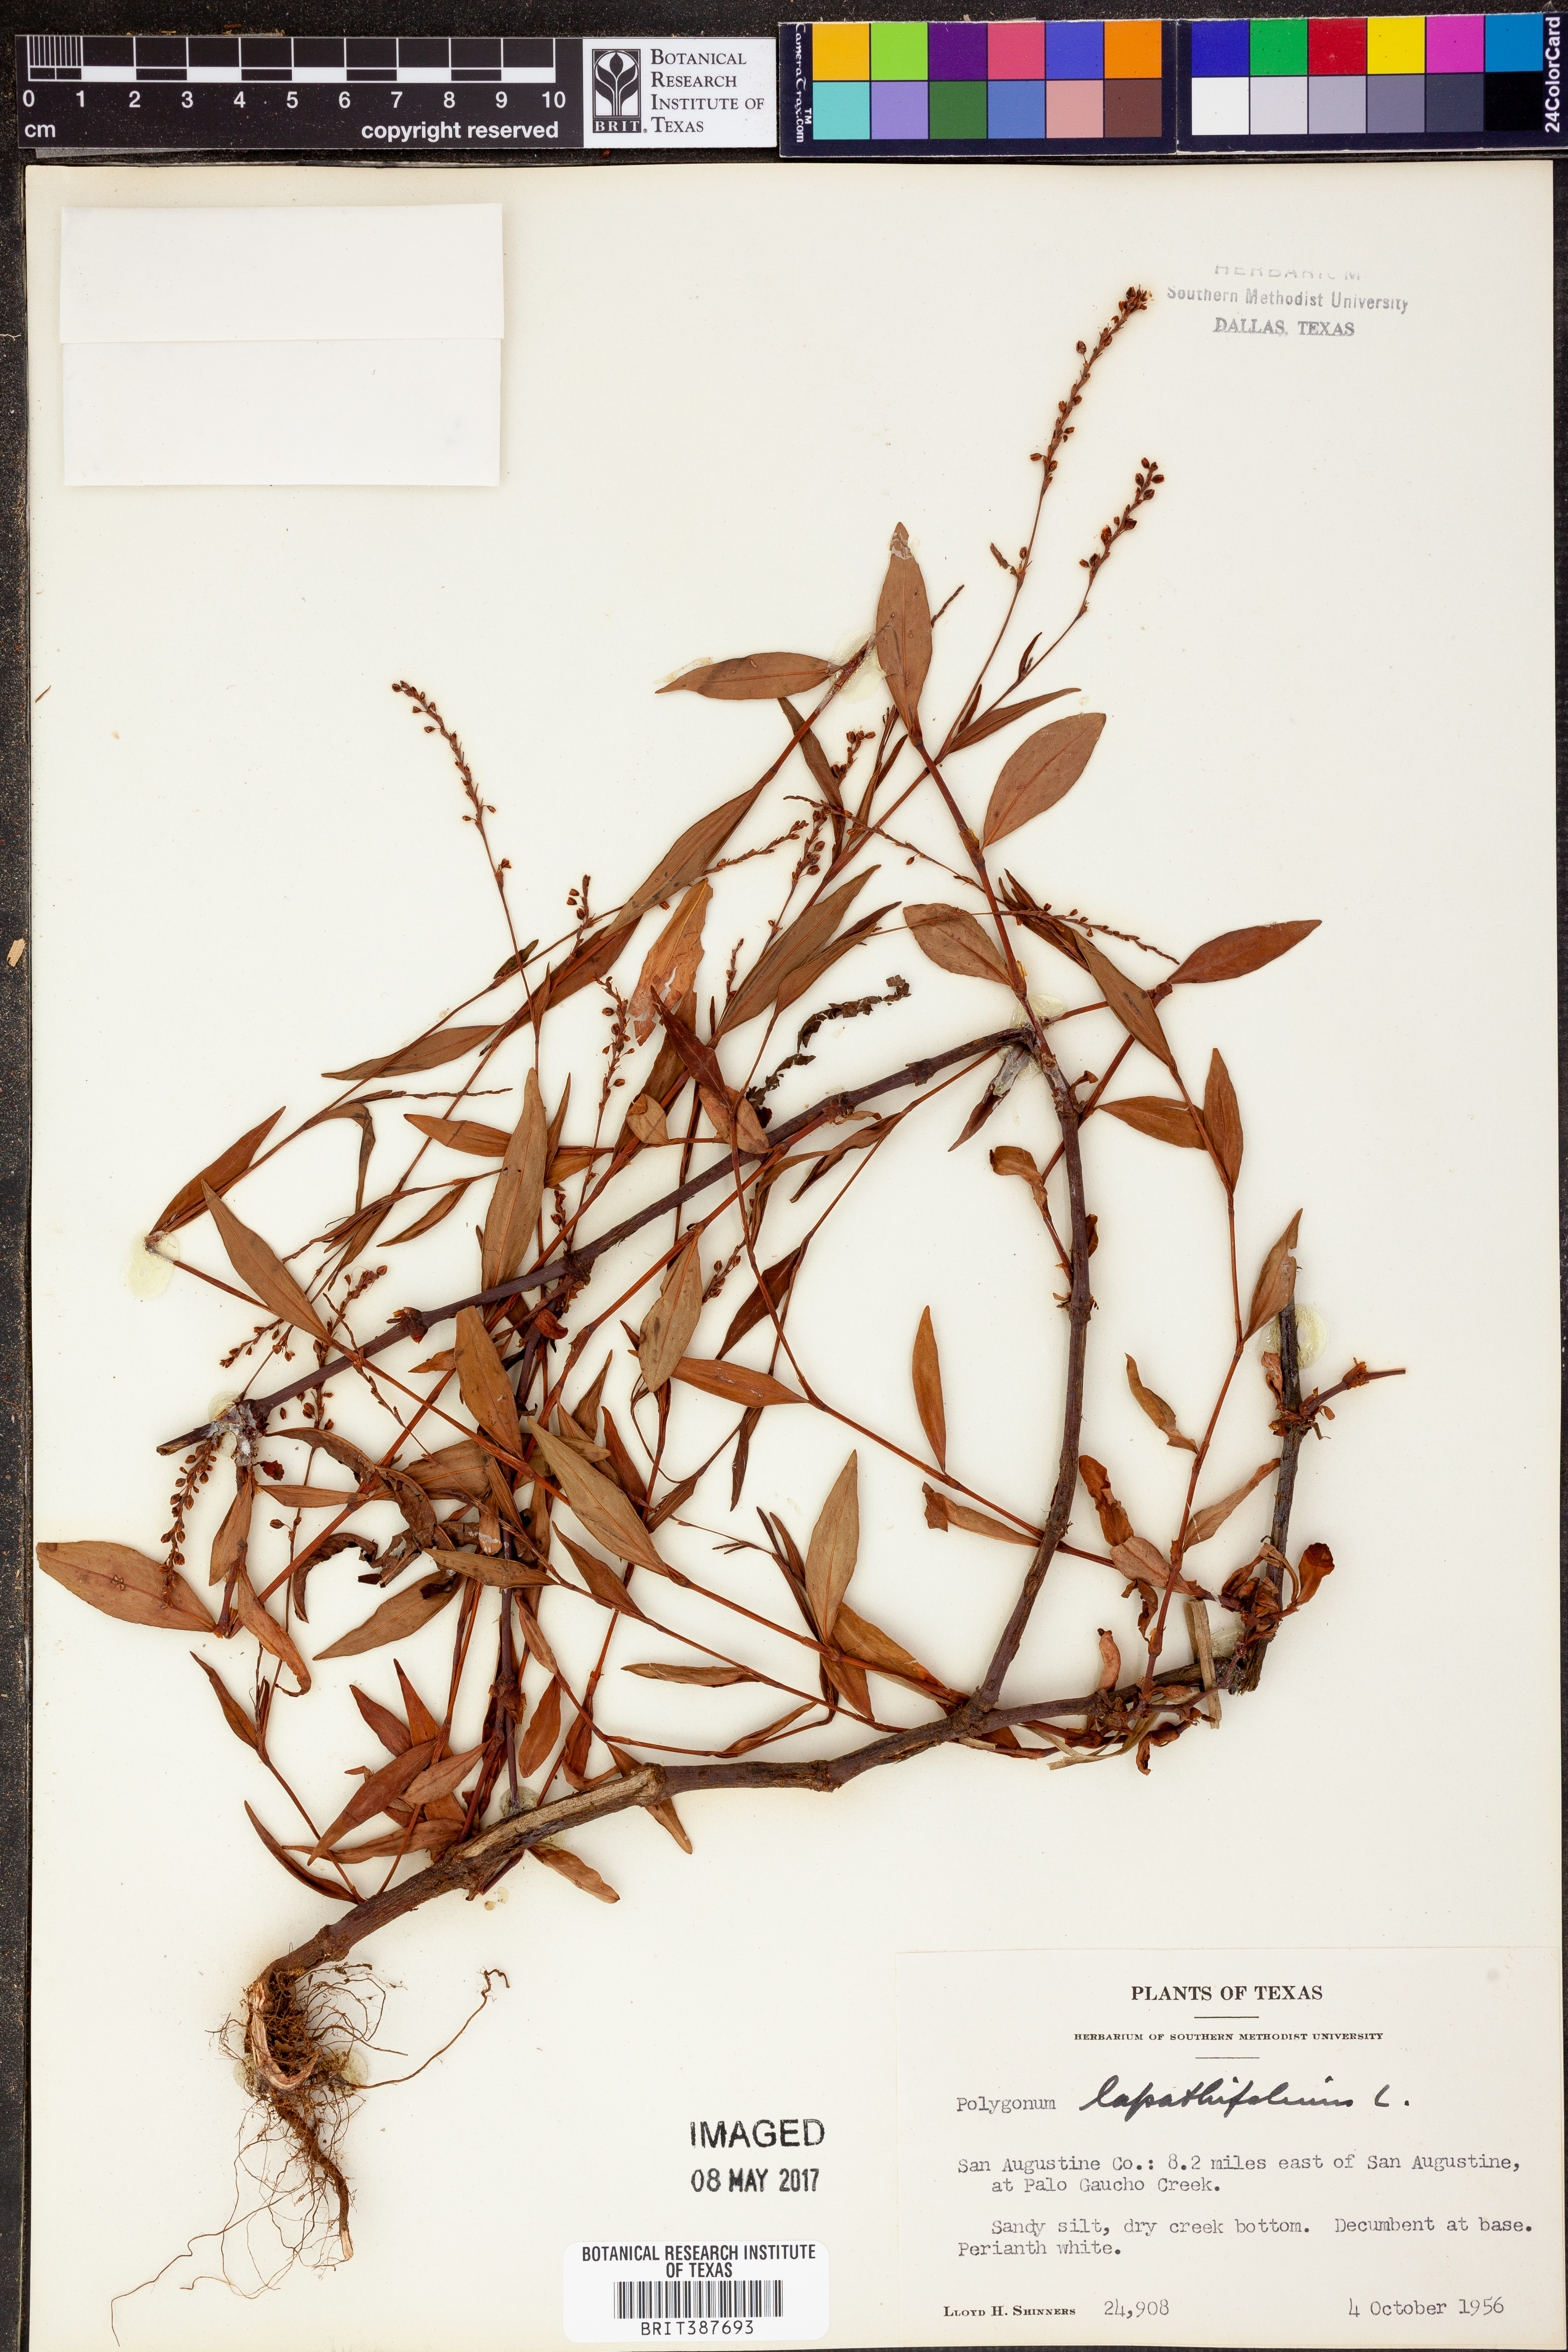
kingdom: Plantae
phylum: Tracheophyta
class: Magnoliopsida
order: Caryophyllales
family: Polygonaceae
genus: Persicaria
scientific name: Persicaria lapathifolia
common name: Curlytop knotweed
